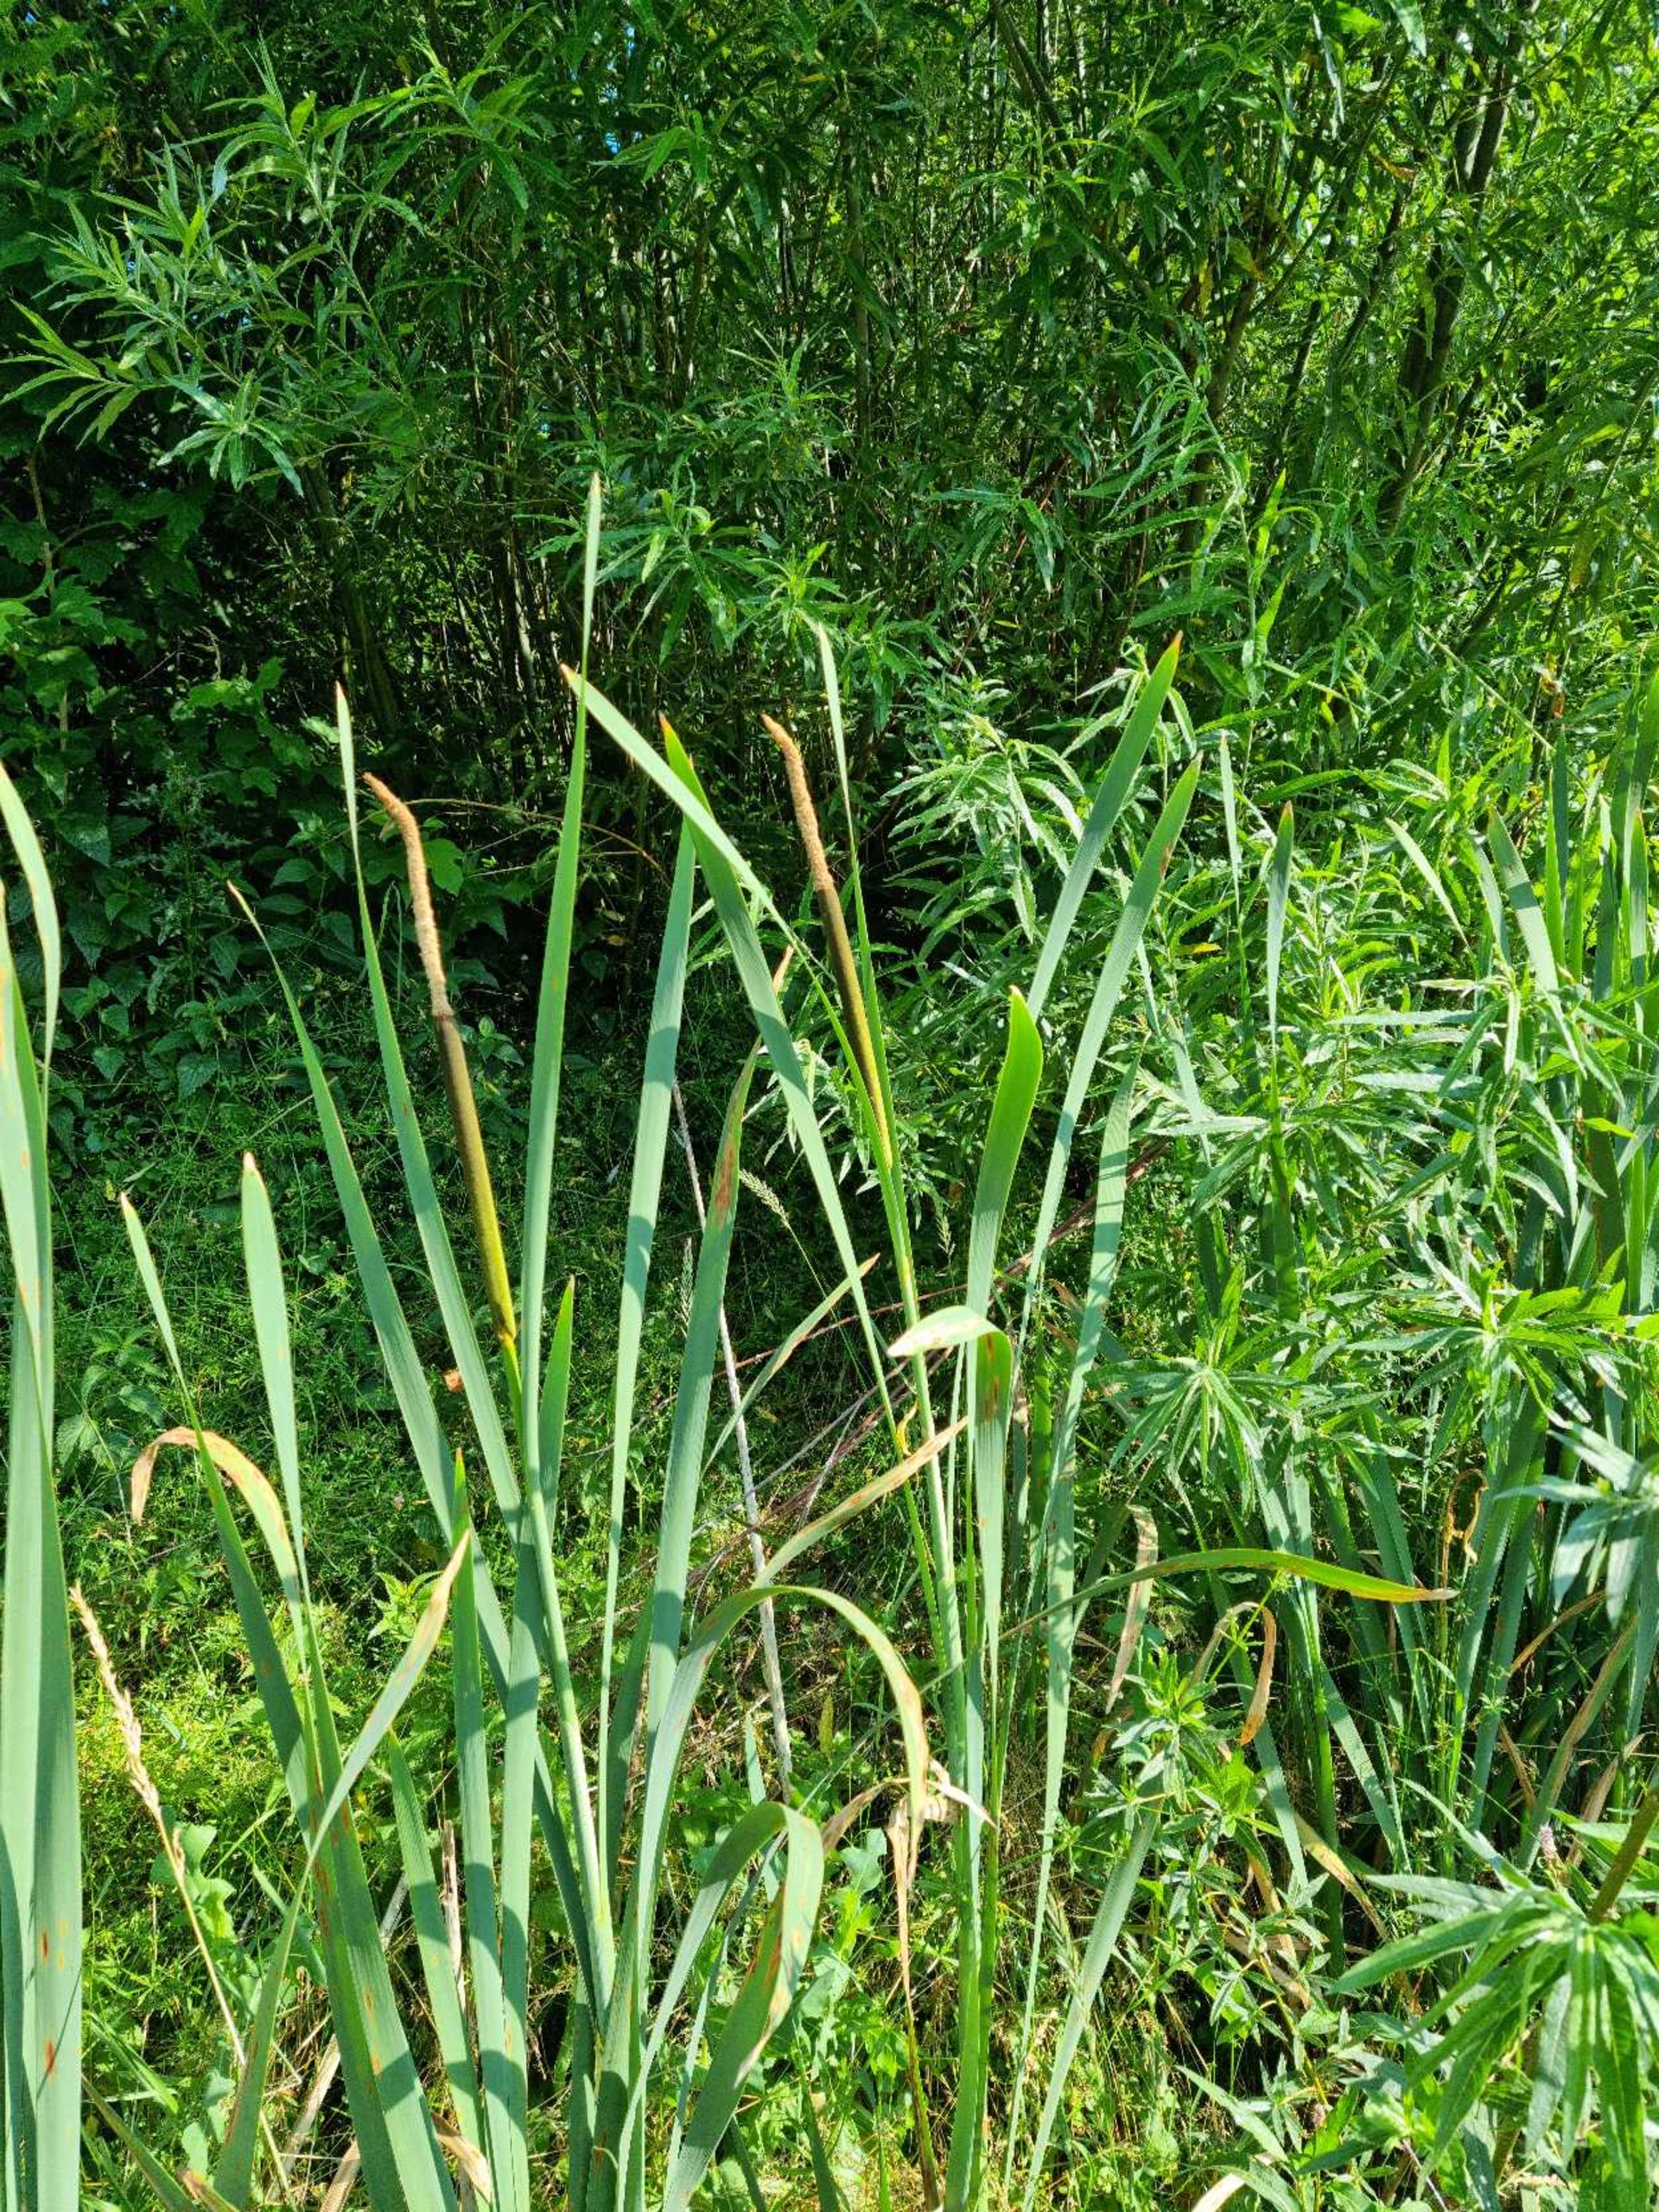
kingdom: Plantae
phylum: Tracheophyta
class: Liliopsida
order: Poales
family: Typhaceae
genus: Typha
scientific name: Typha latifolia
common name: Bredbladet dunhammer
